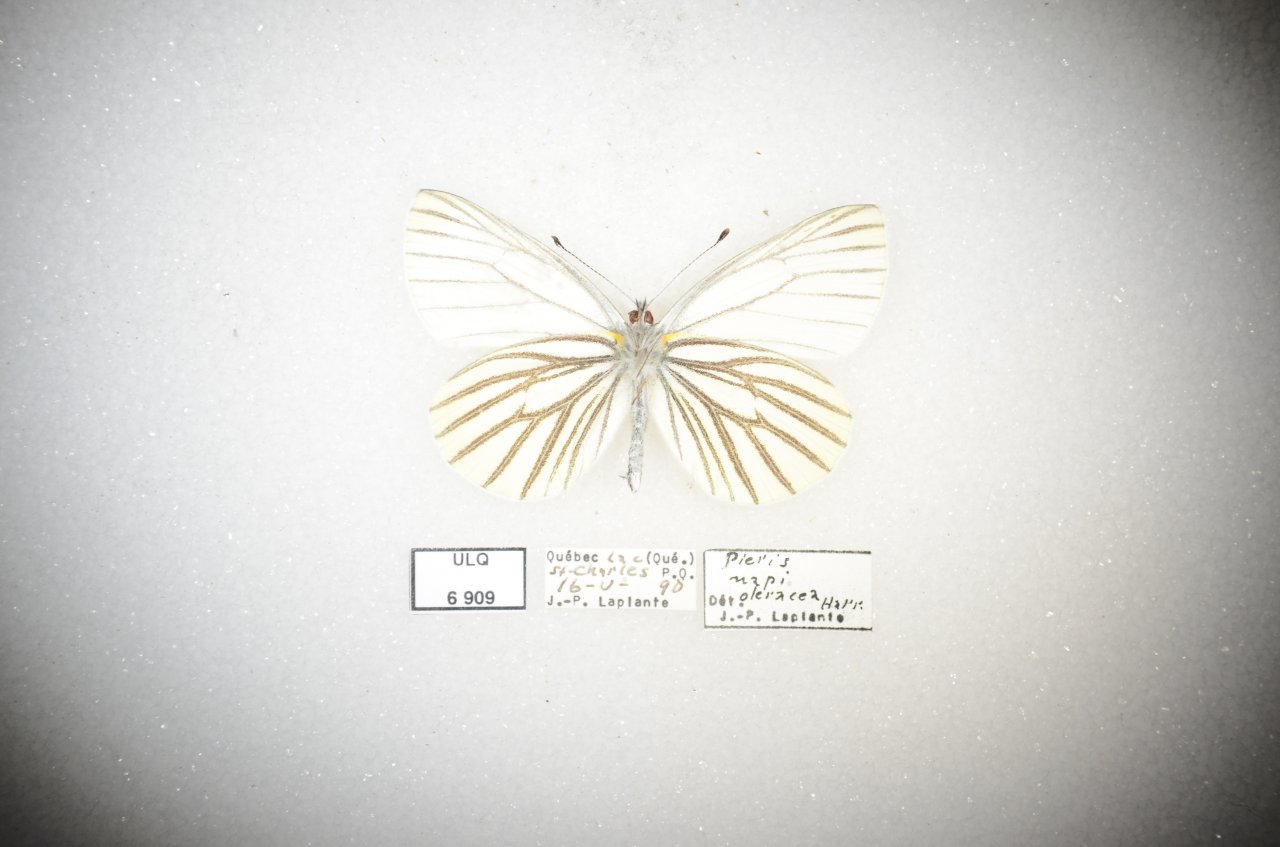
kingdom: Animalia
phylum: Arthropoda
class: Insecta
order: Lepidoptera
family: Pieridae
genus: Pieris
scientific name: Pieris oleracea
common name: Mustard White
